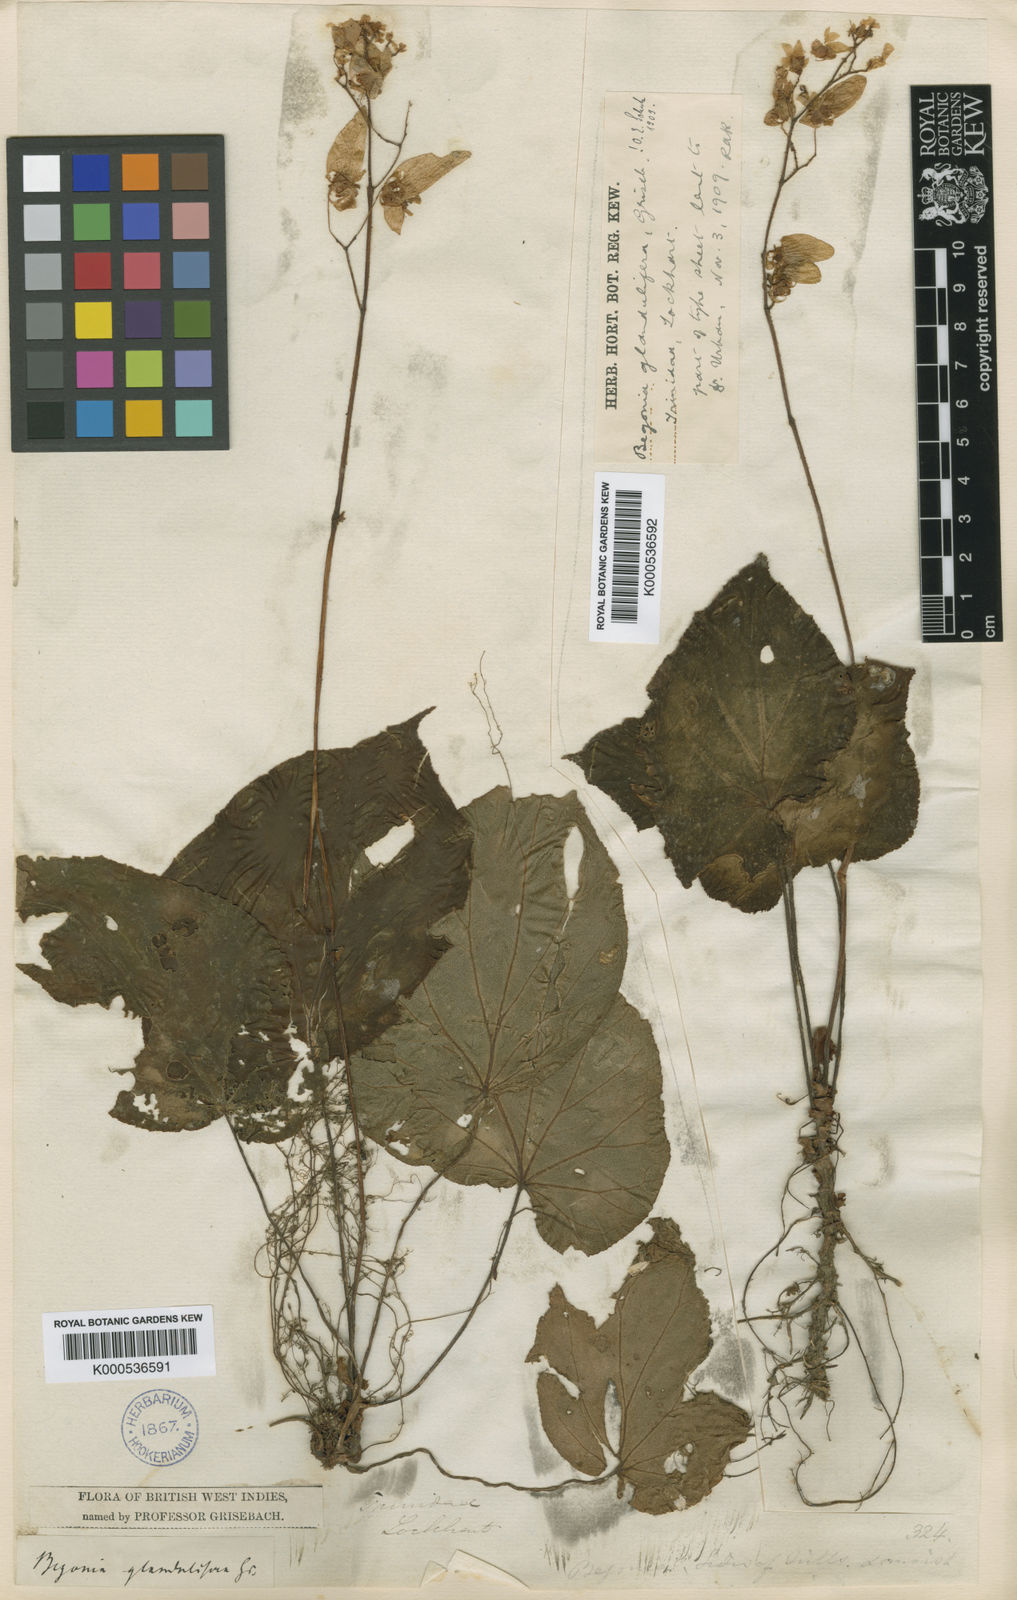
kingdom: Plantae
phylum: Tracheophyta
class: Magnoliopsida
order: Cucurbitales
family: Begoniaceae
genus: Begonia
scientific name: Begonia glandulifera
